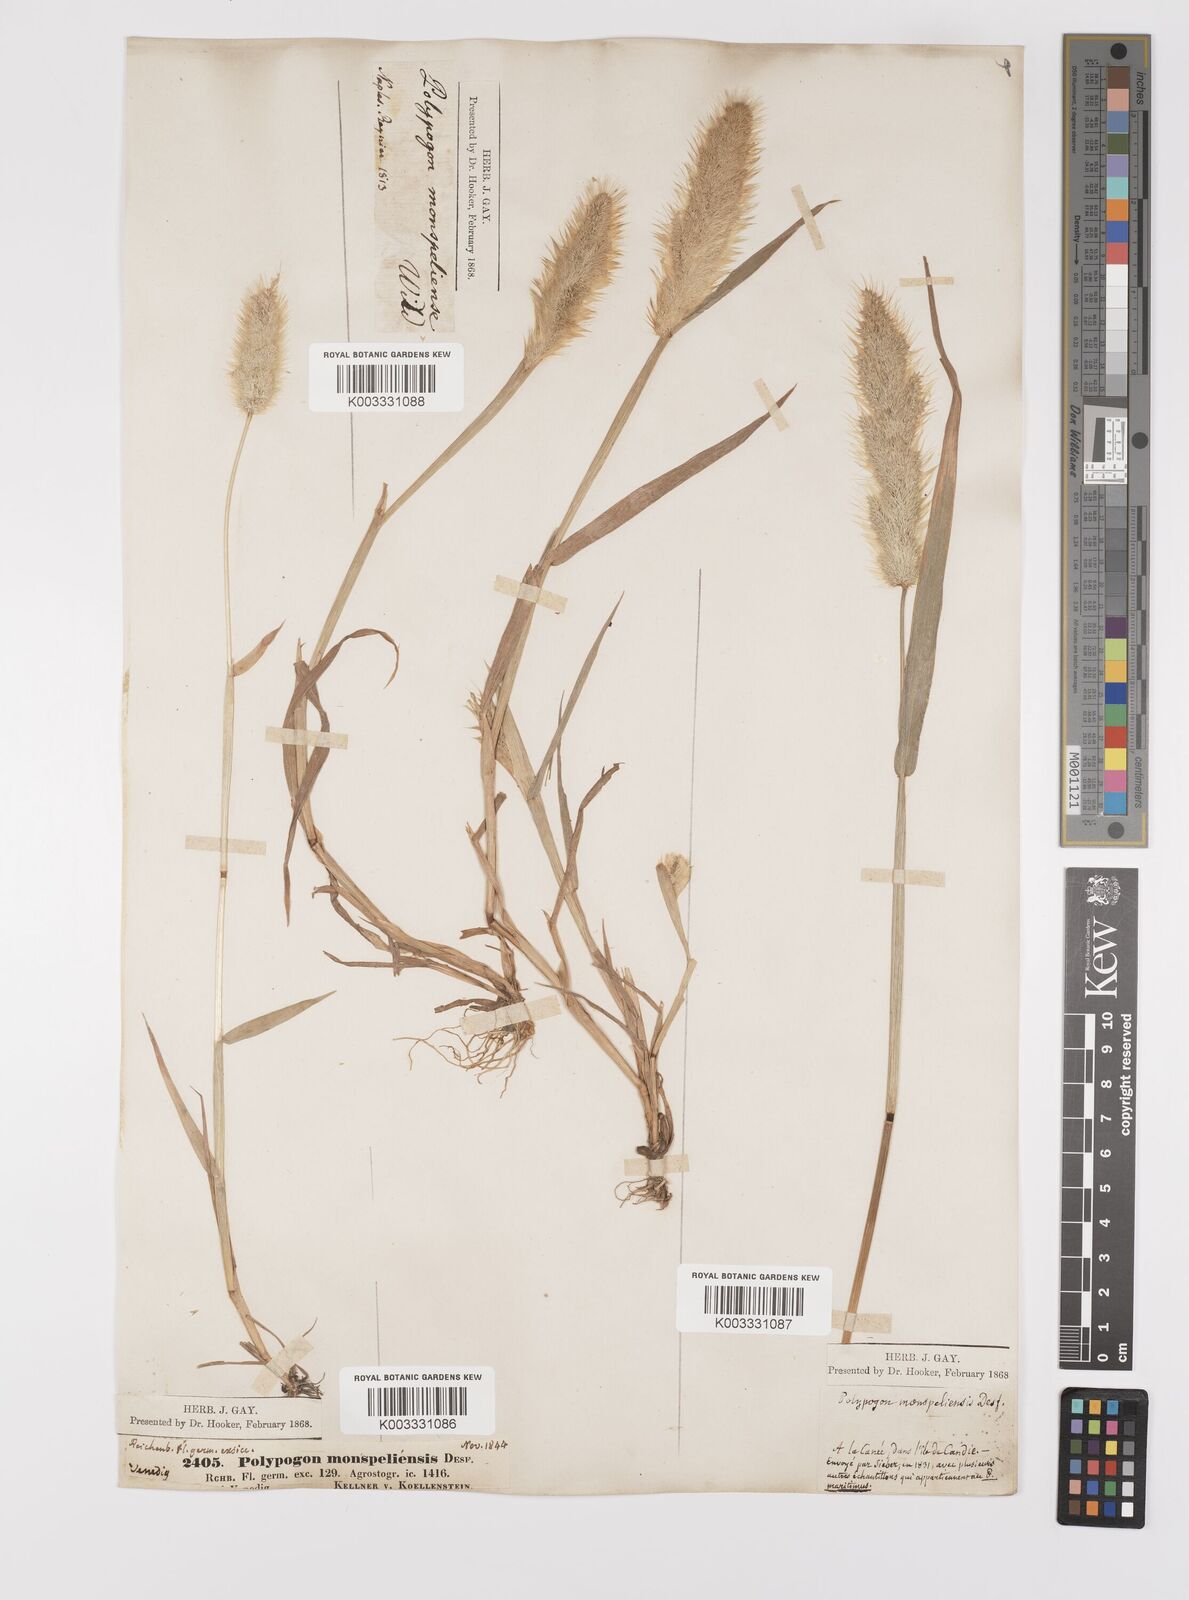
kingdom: Plantae
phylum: Tracheophyta
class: Liliopsida
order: Poales
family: Poaceae
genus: Polypogon
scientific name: Polypogon monspeliensis
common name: Annual rabbitsfoot grass
